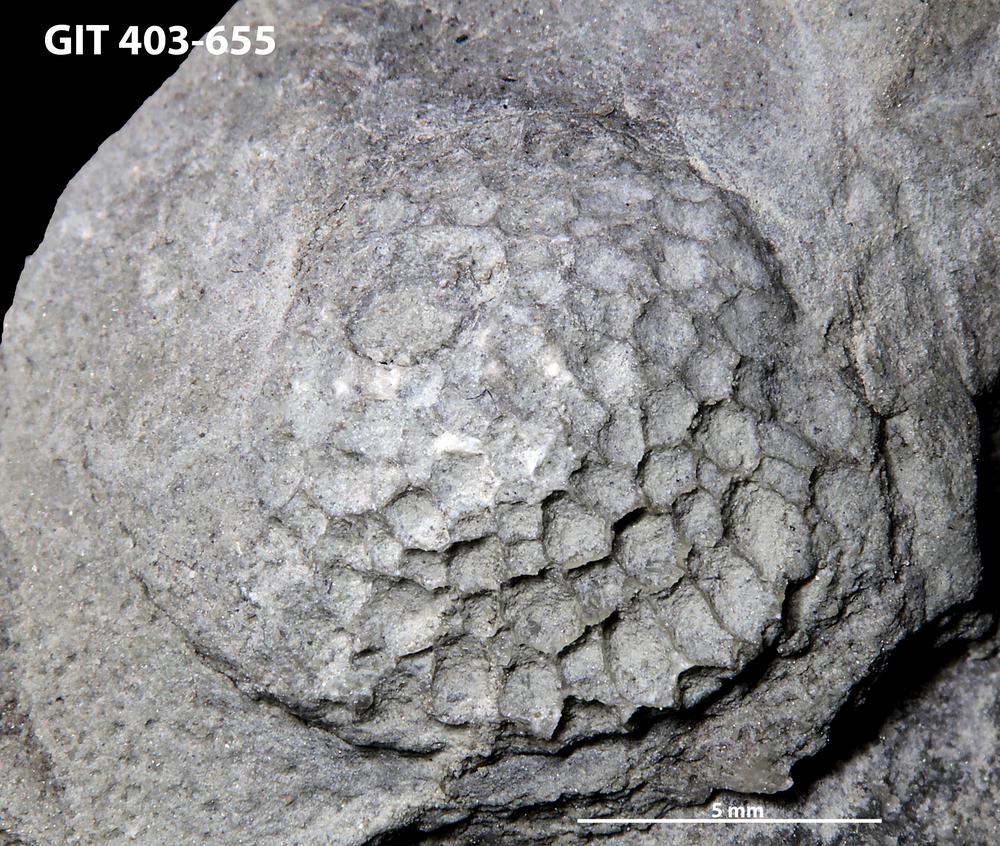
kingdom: Animalia
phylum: Cnidaria
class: Anthozoa
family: Favositidae
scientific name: Favositidae
